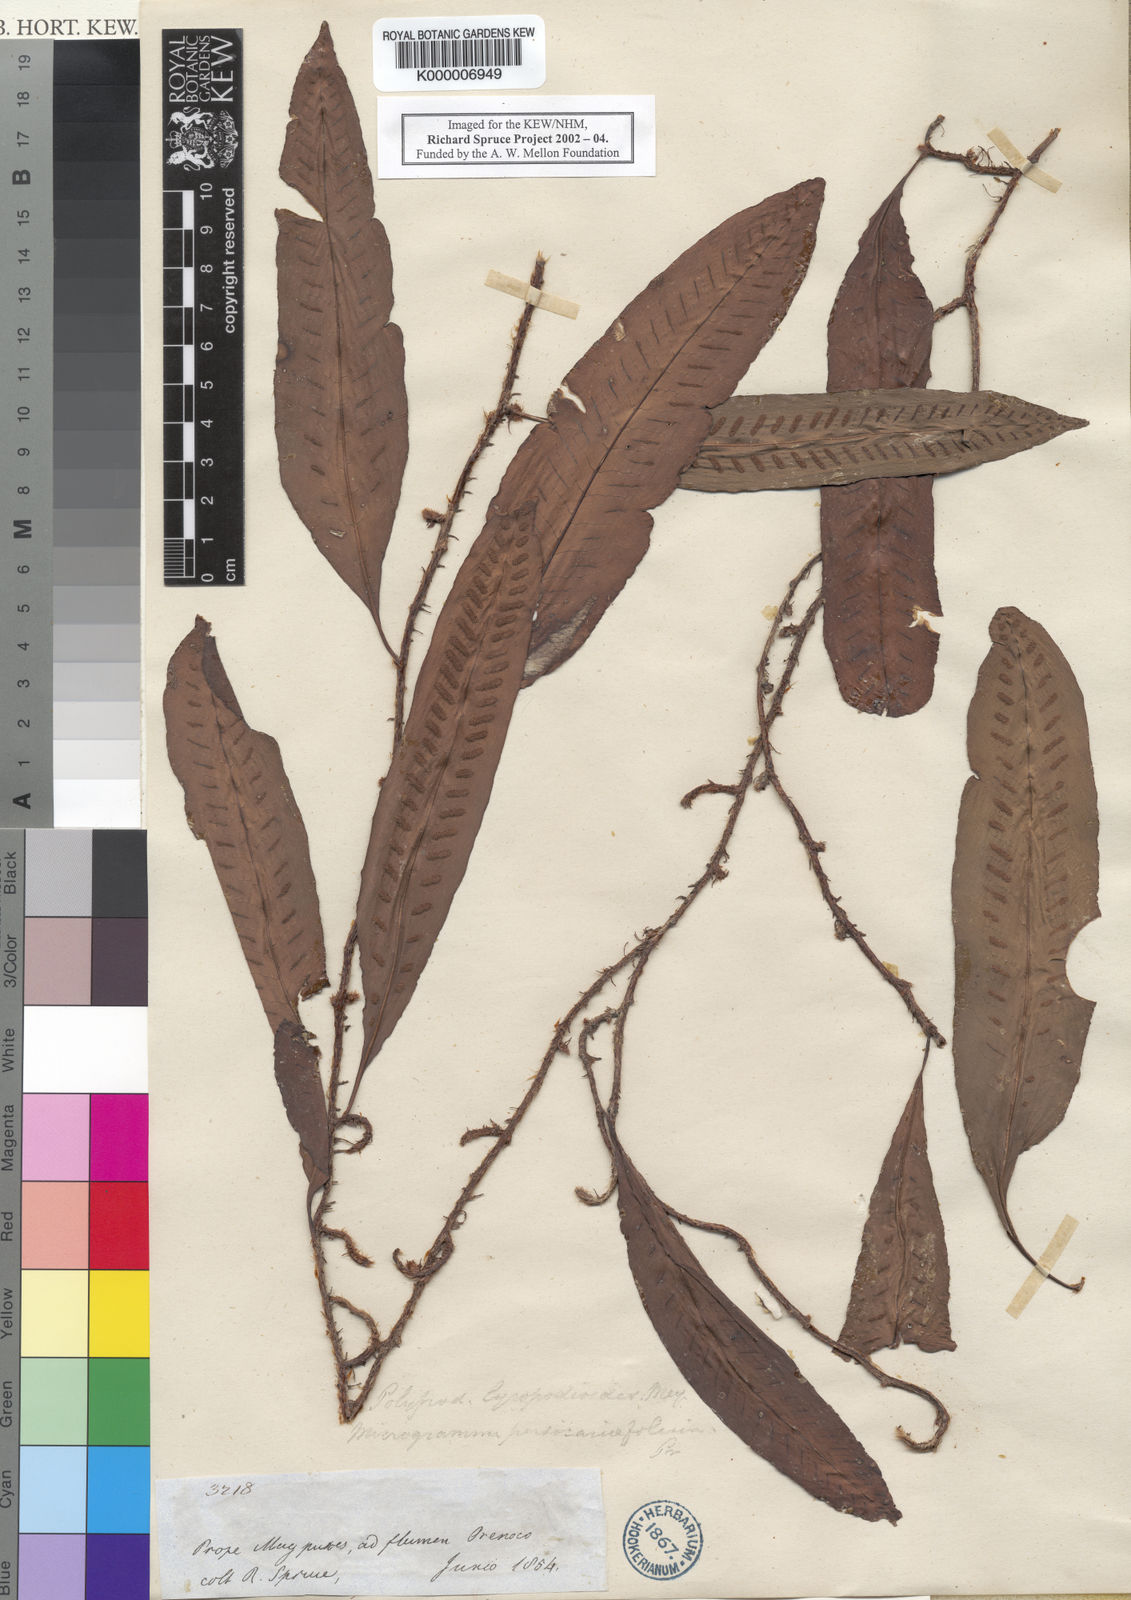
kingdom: Plantae
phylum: Tracheophyta
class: Polypodiopsida
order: Polypodiales
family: Polypodiaceae
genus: Microgramma
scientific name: Microgramma
